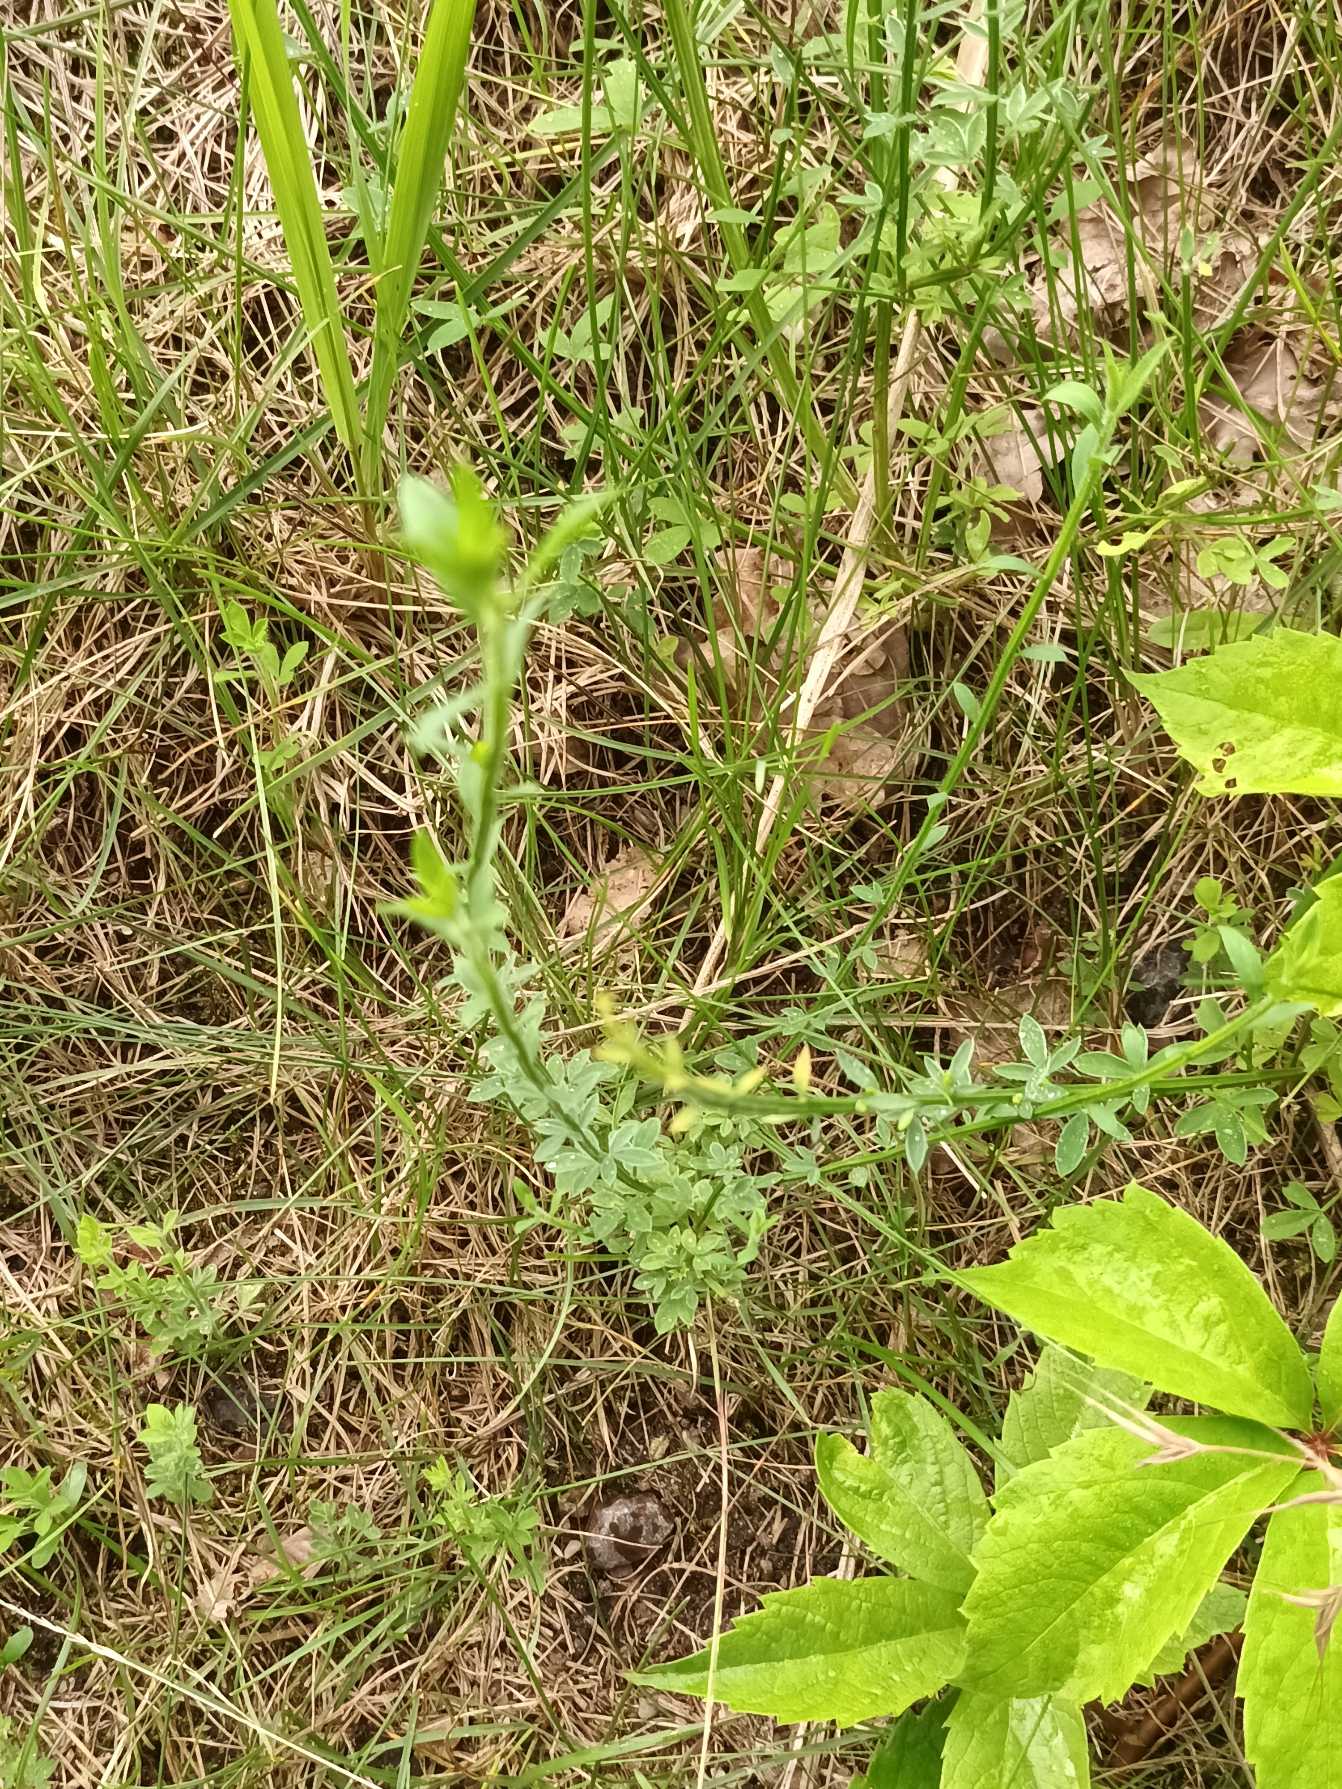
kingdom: Plantae
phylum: Tracheophyta
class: Magnoliopsida
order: Fabales
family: Fabaceae
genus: Cytisus
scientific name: Cytisus scoparius
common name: Almindelig gyvel
